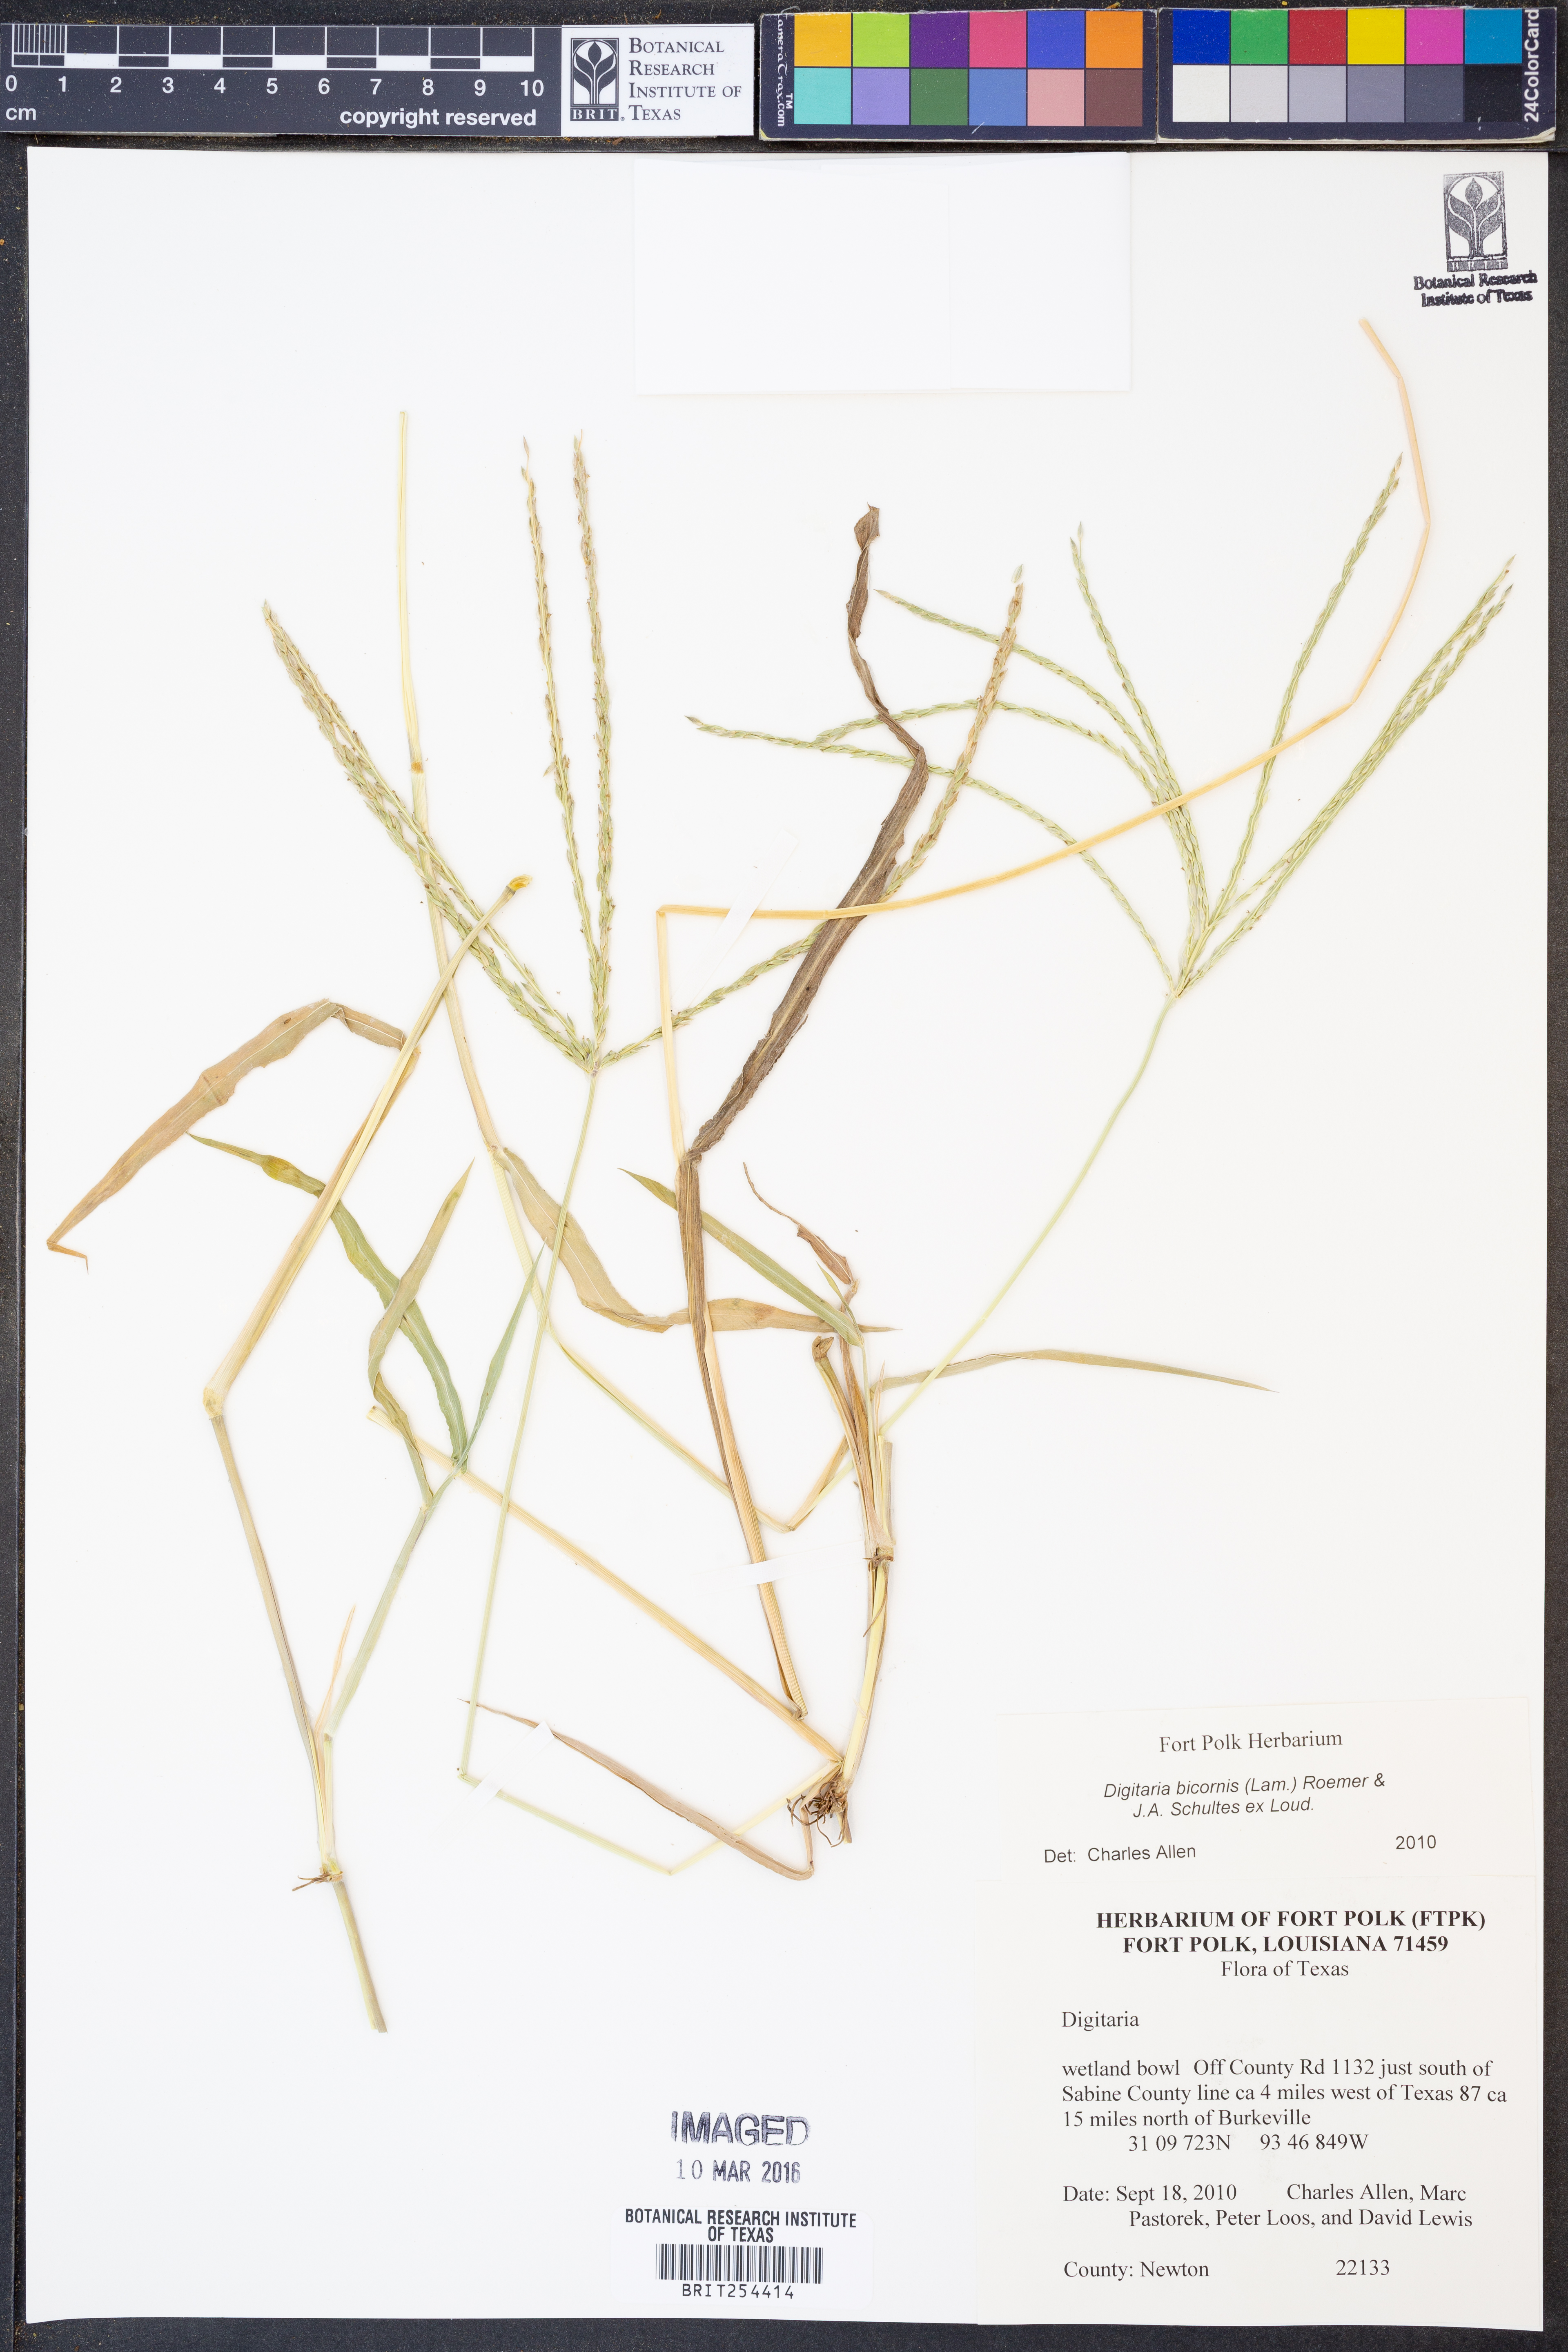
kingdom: Plantae
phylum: Tracheophyta
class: Liliopsida
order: Poales
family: Poaceae
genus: Digitaria
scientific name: Digitaria bicornis
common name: Asian crabgrass
